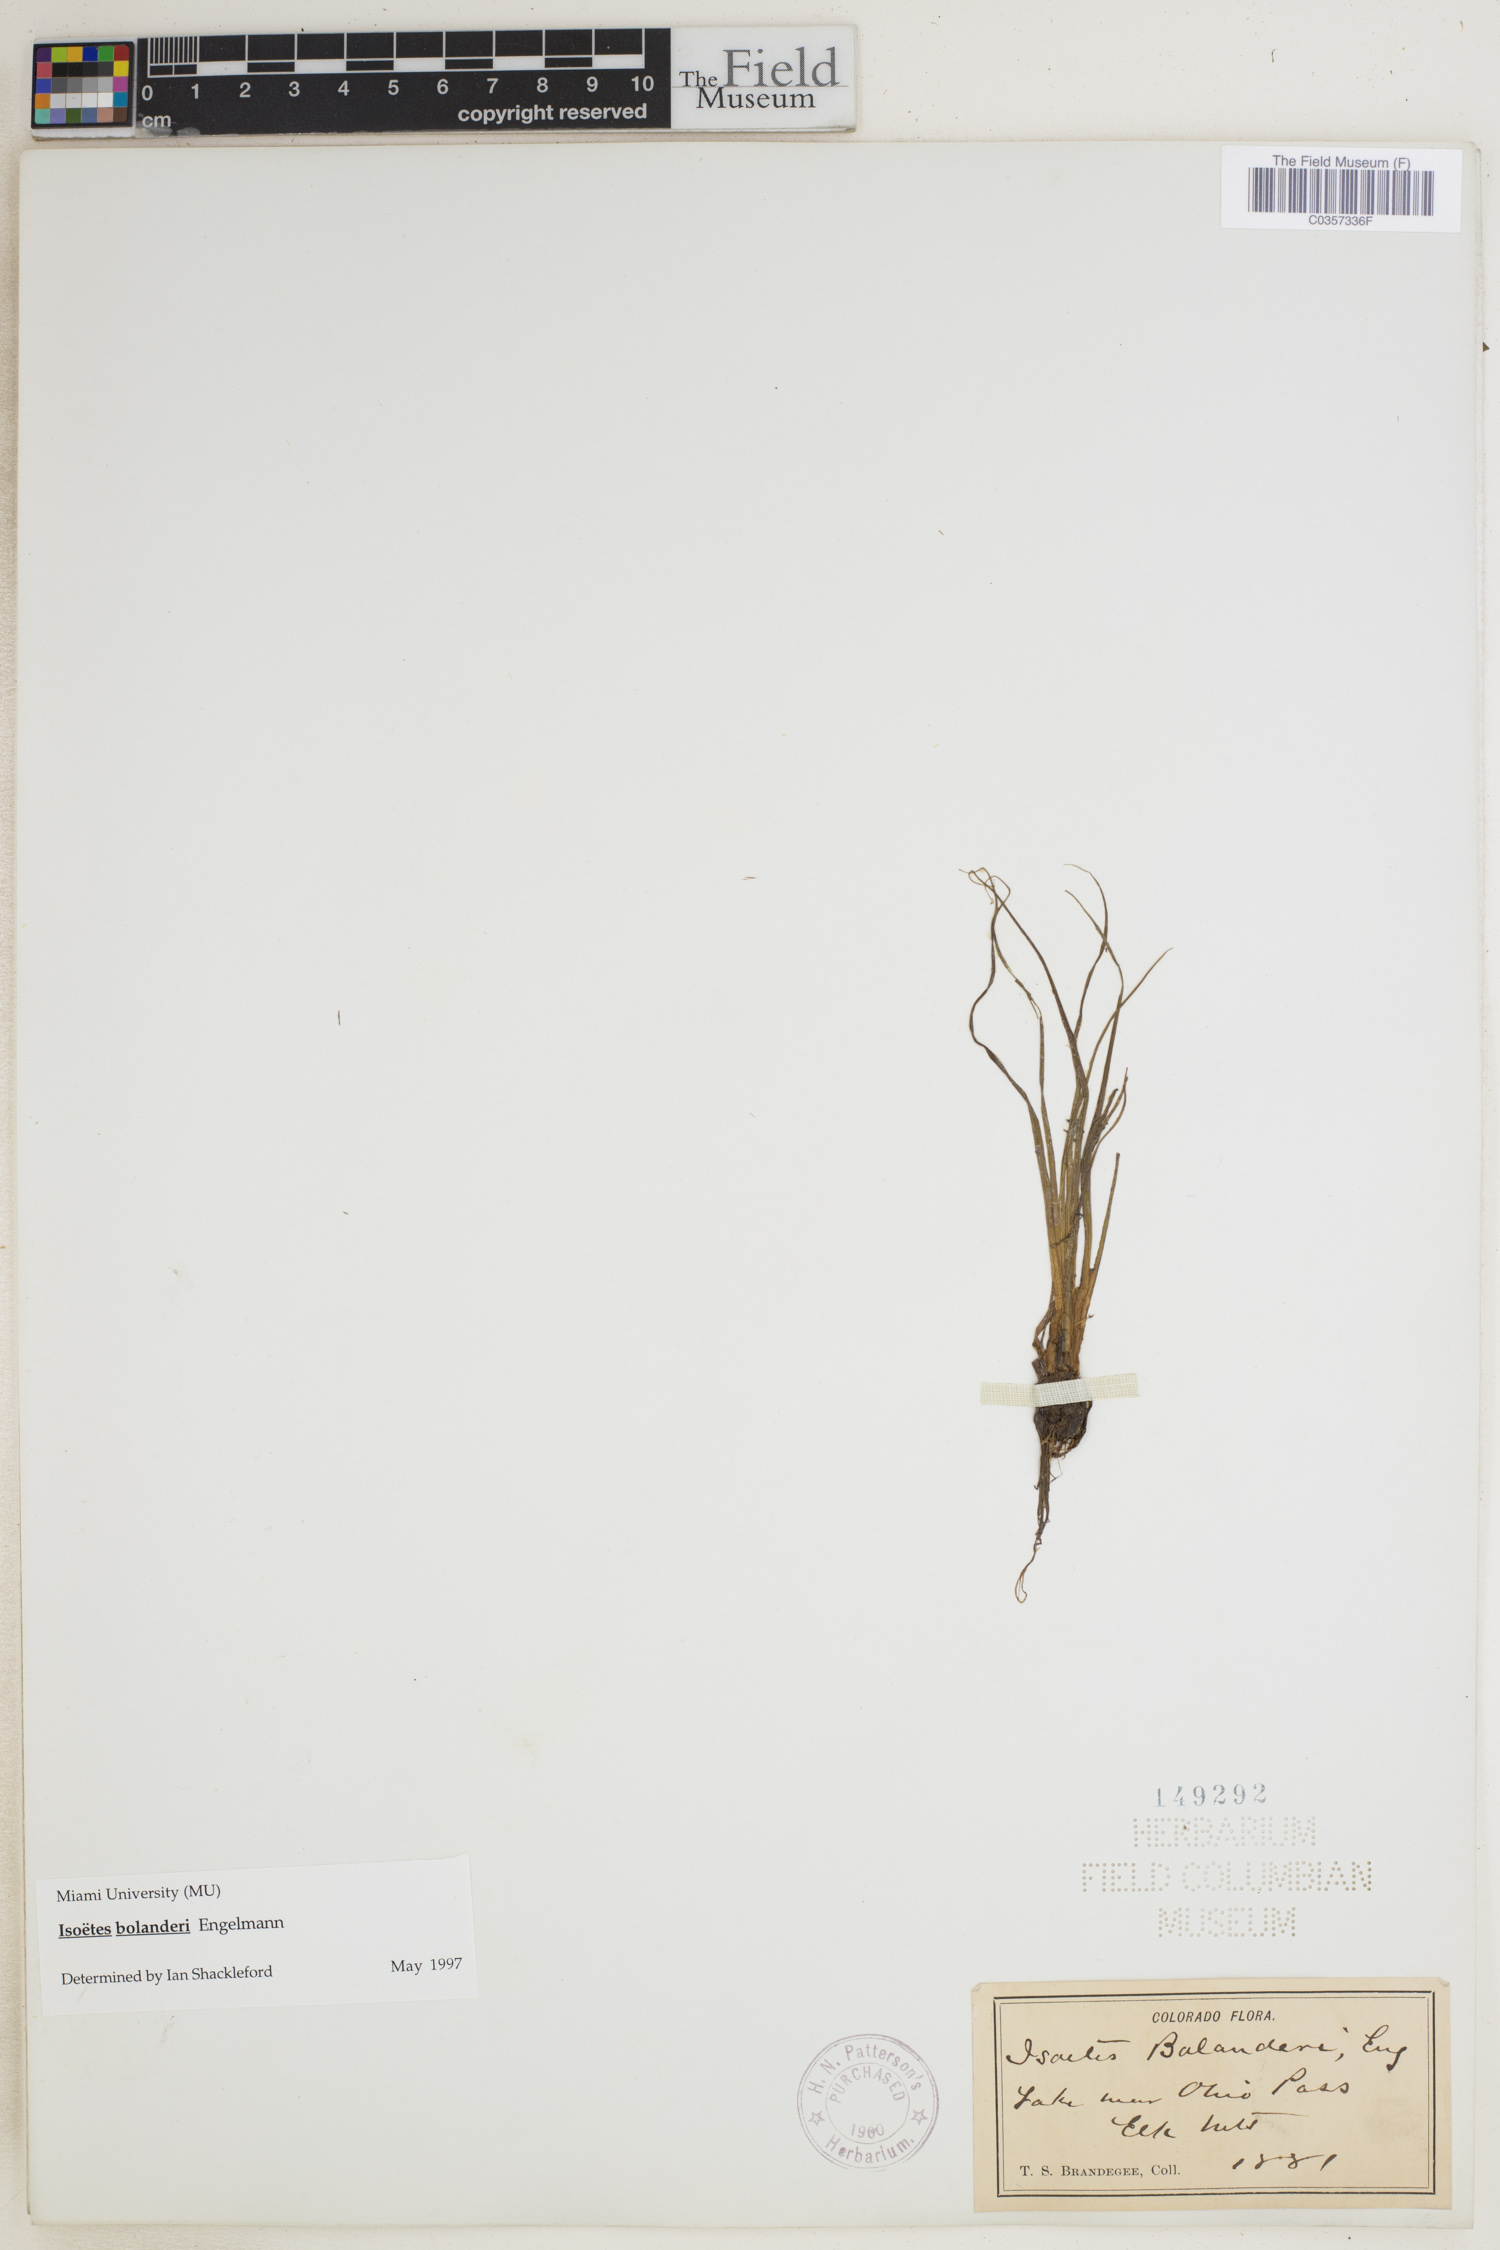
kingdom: Plantae
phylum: Tracheophyta
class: Lycopodiopsida
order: Isoetales
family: Isoetaceae
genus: Isoetes
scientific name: Isoetes bolanderi
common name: Bolander's quillwort
